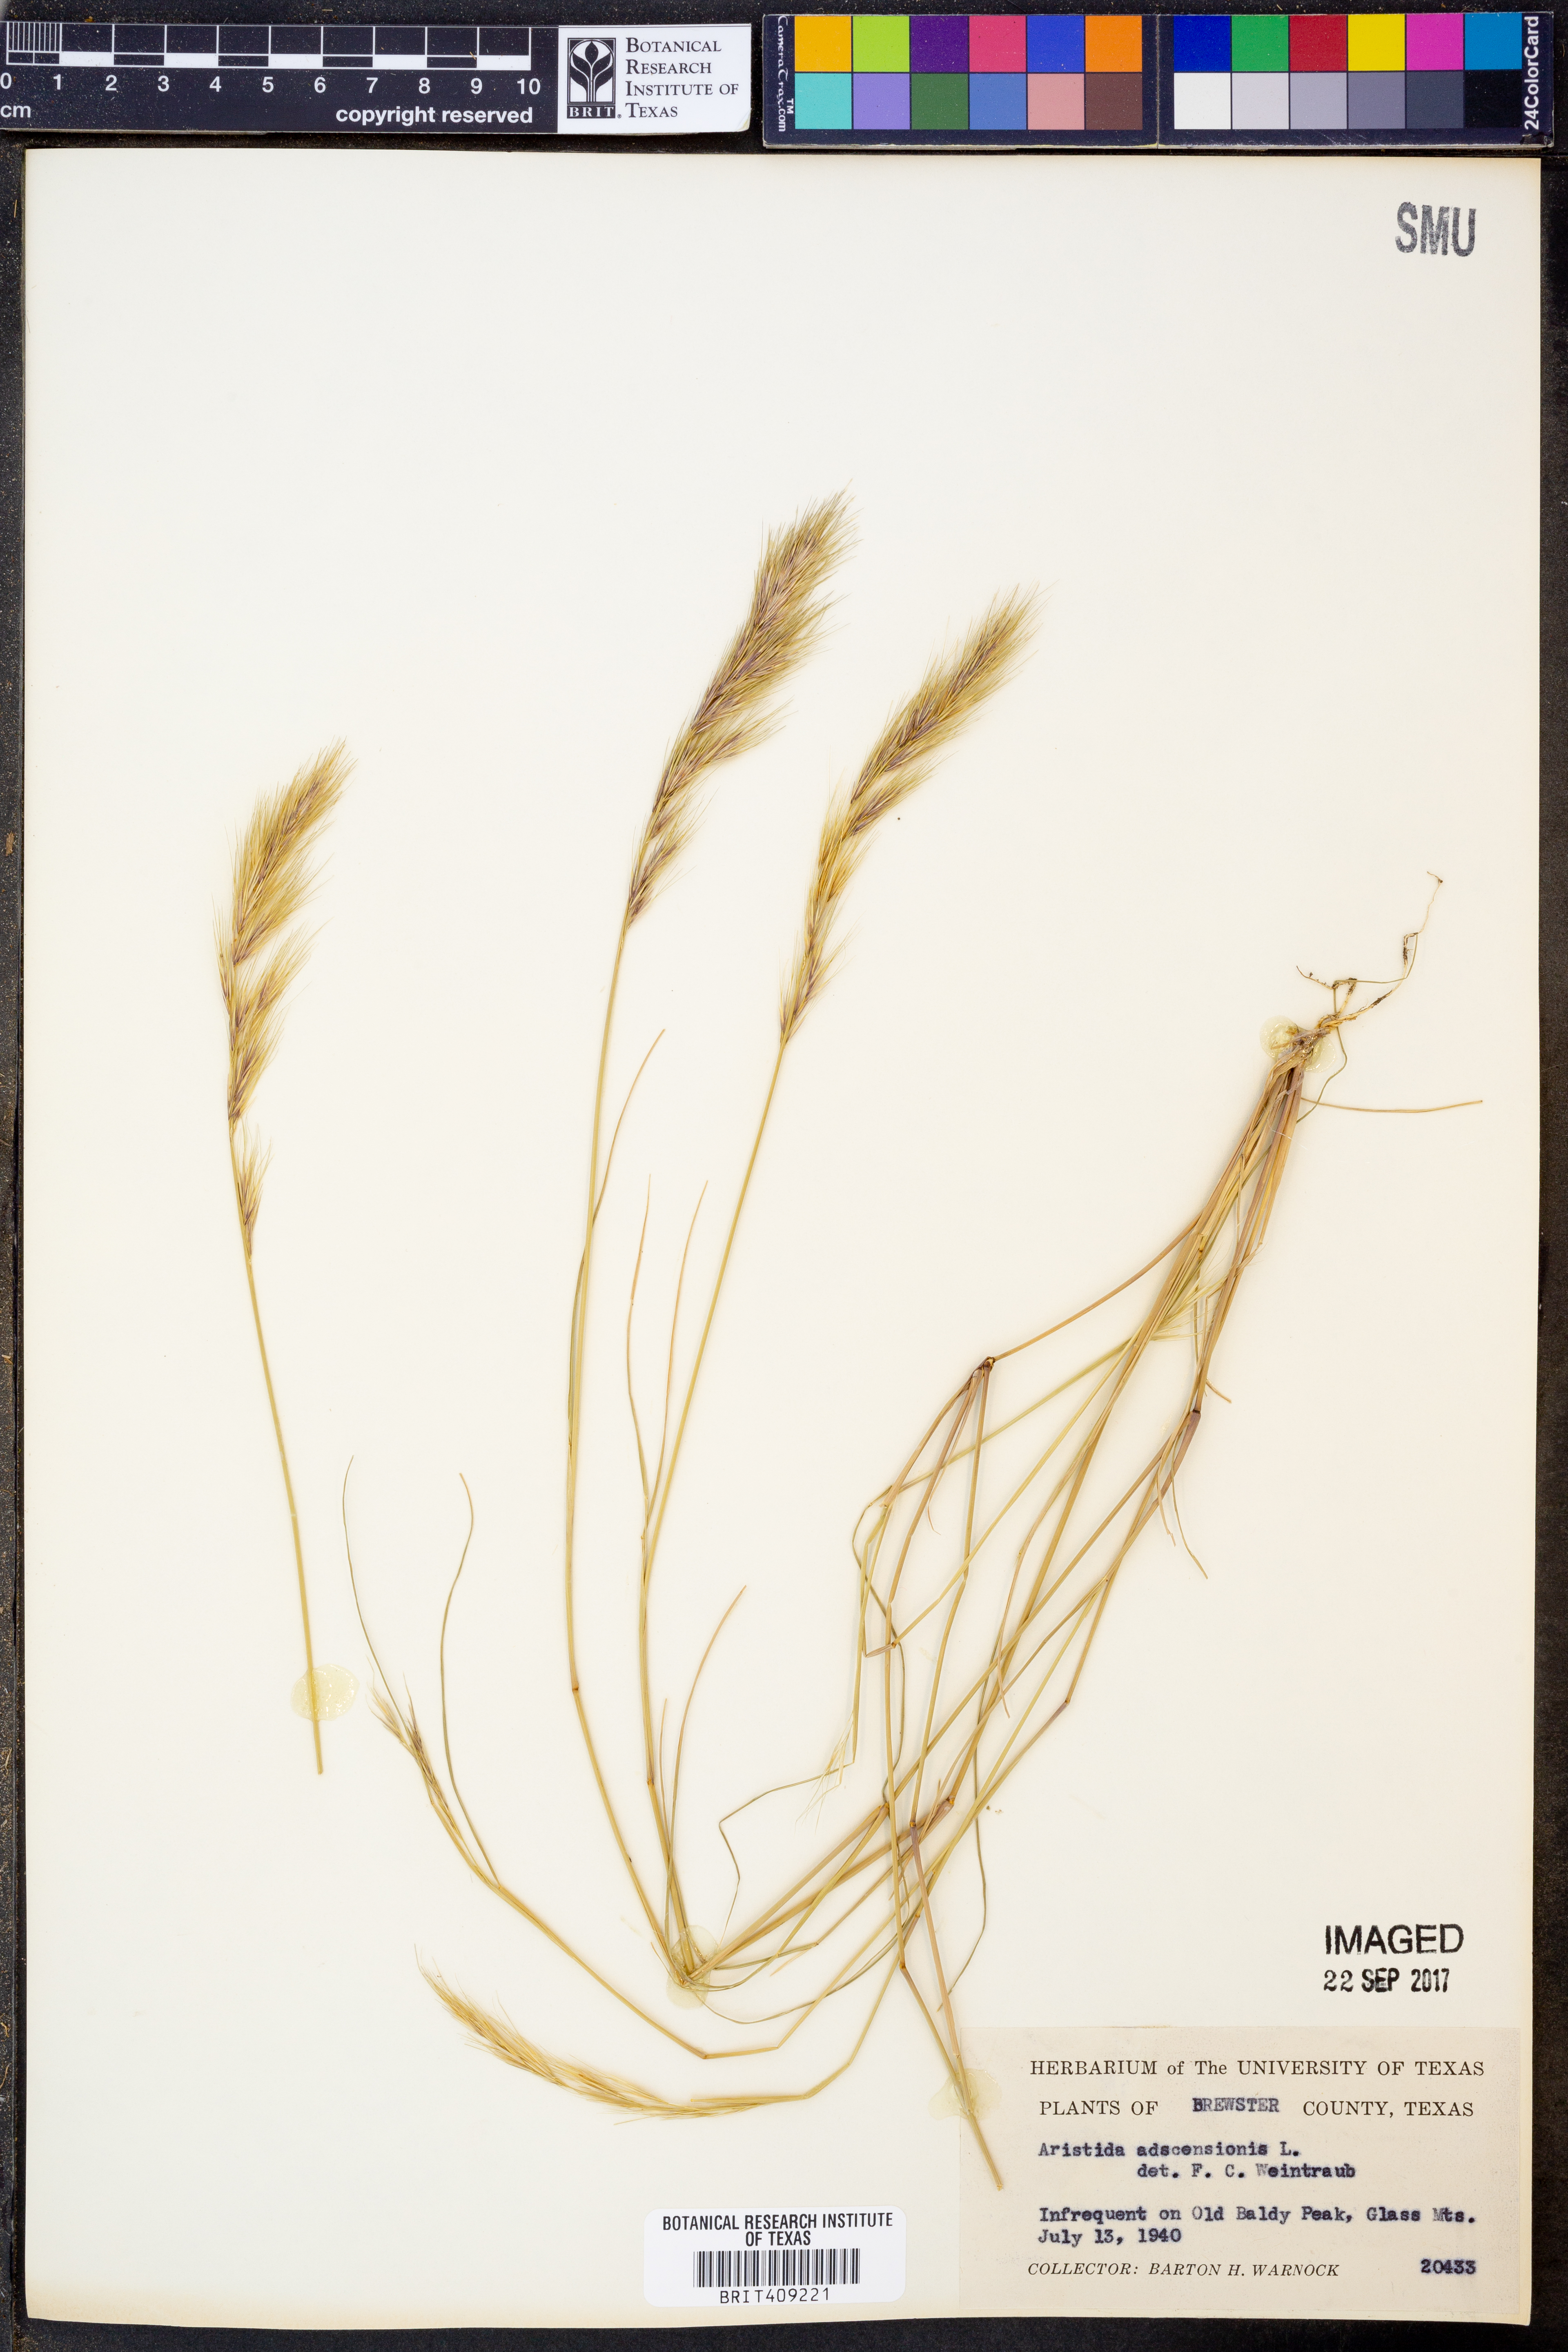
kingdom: Plantae
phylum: Tracheophyta
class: Liliopsida
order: Poales
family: Poaceae
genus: Aristida
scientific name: Aristida adscensionis
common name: Sixweeks threeawn
